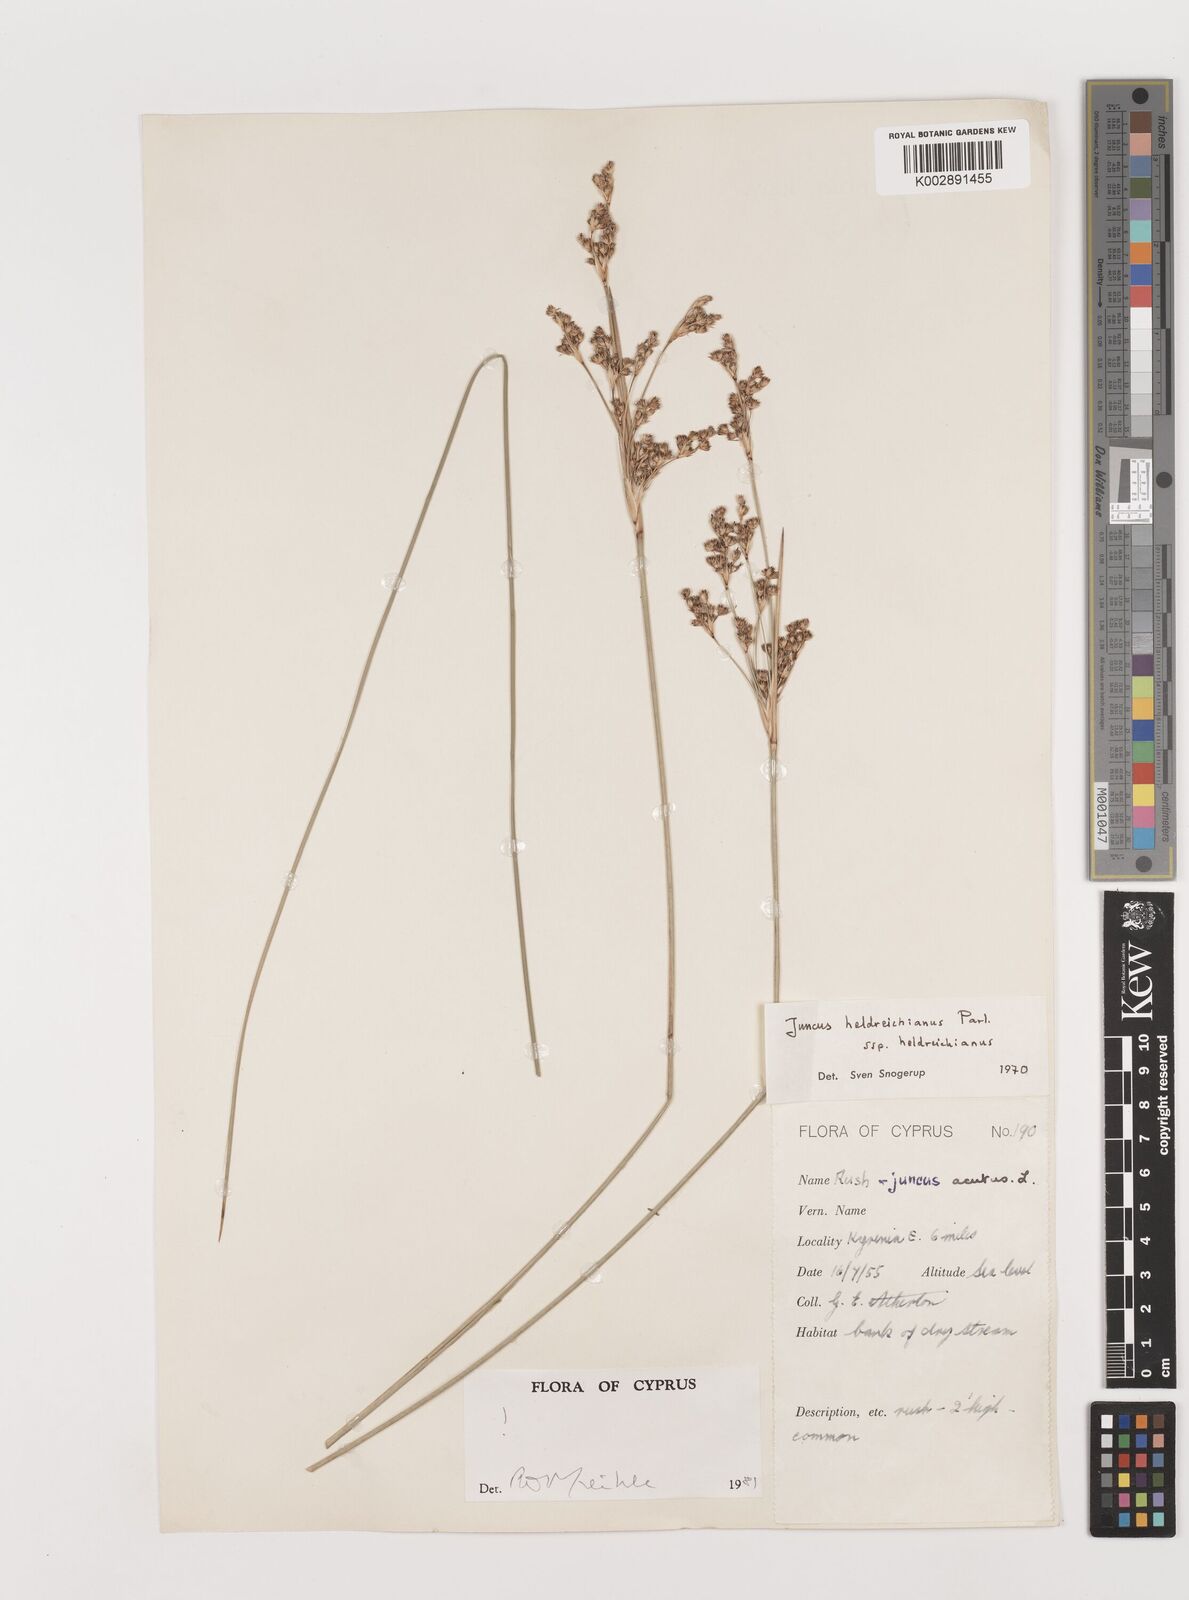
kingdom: Plantae
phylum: Tracheophyta
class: Liliopsida
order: Poales
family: Juncaceae
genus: Juncus
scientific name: Juncus heldreichianus
